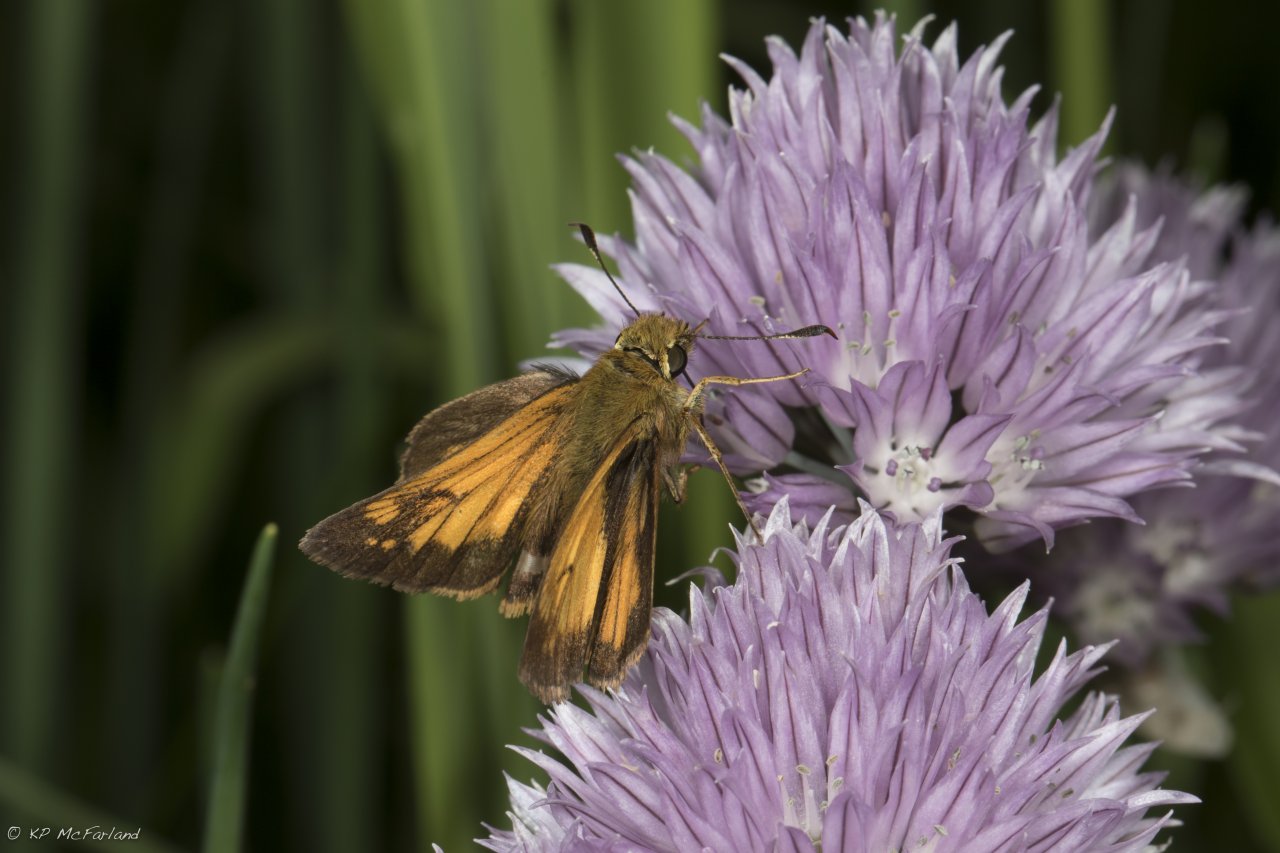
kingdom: Animalia
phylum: Arthropoda
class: Insecta
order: Lepidoptera
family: Hesperiidae
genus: Lon
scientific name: Lon hobomok
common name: Hobomok Skipper
